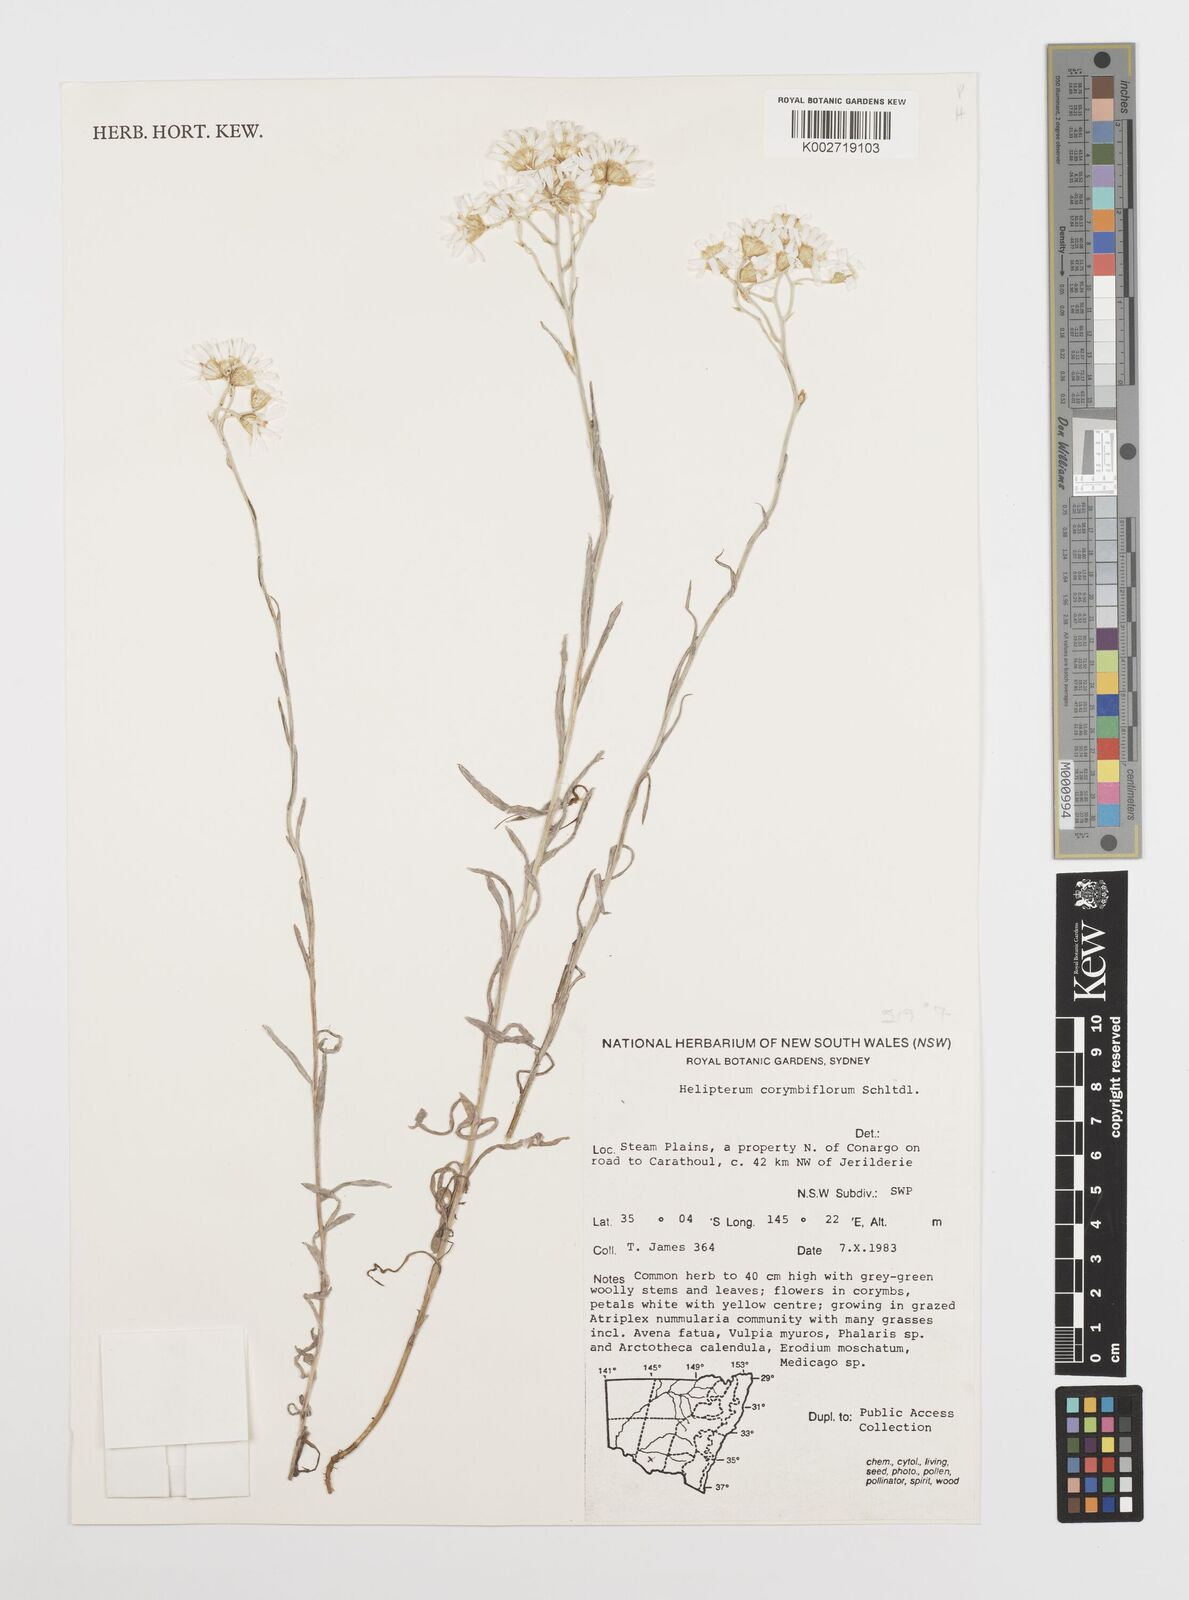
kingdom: Plantae
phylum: Tracheophyta
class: Magnoliopsida
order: Asterales
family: Asteraceae
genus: Rhodanthe
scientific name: Rhodanthe corymbiflora
